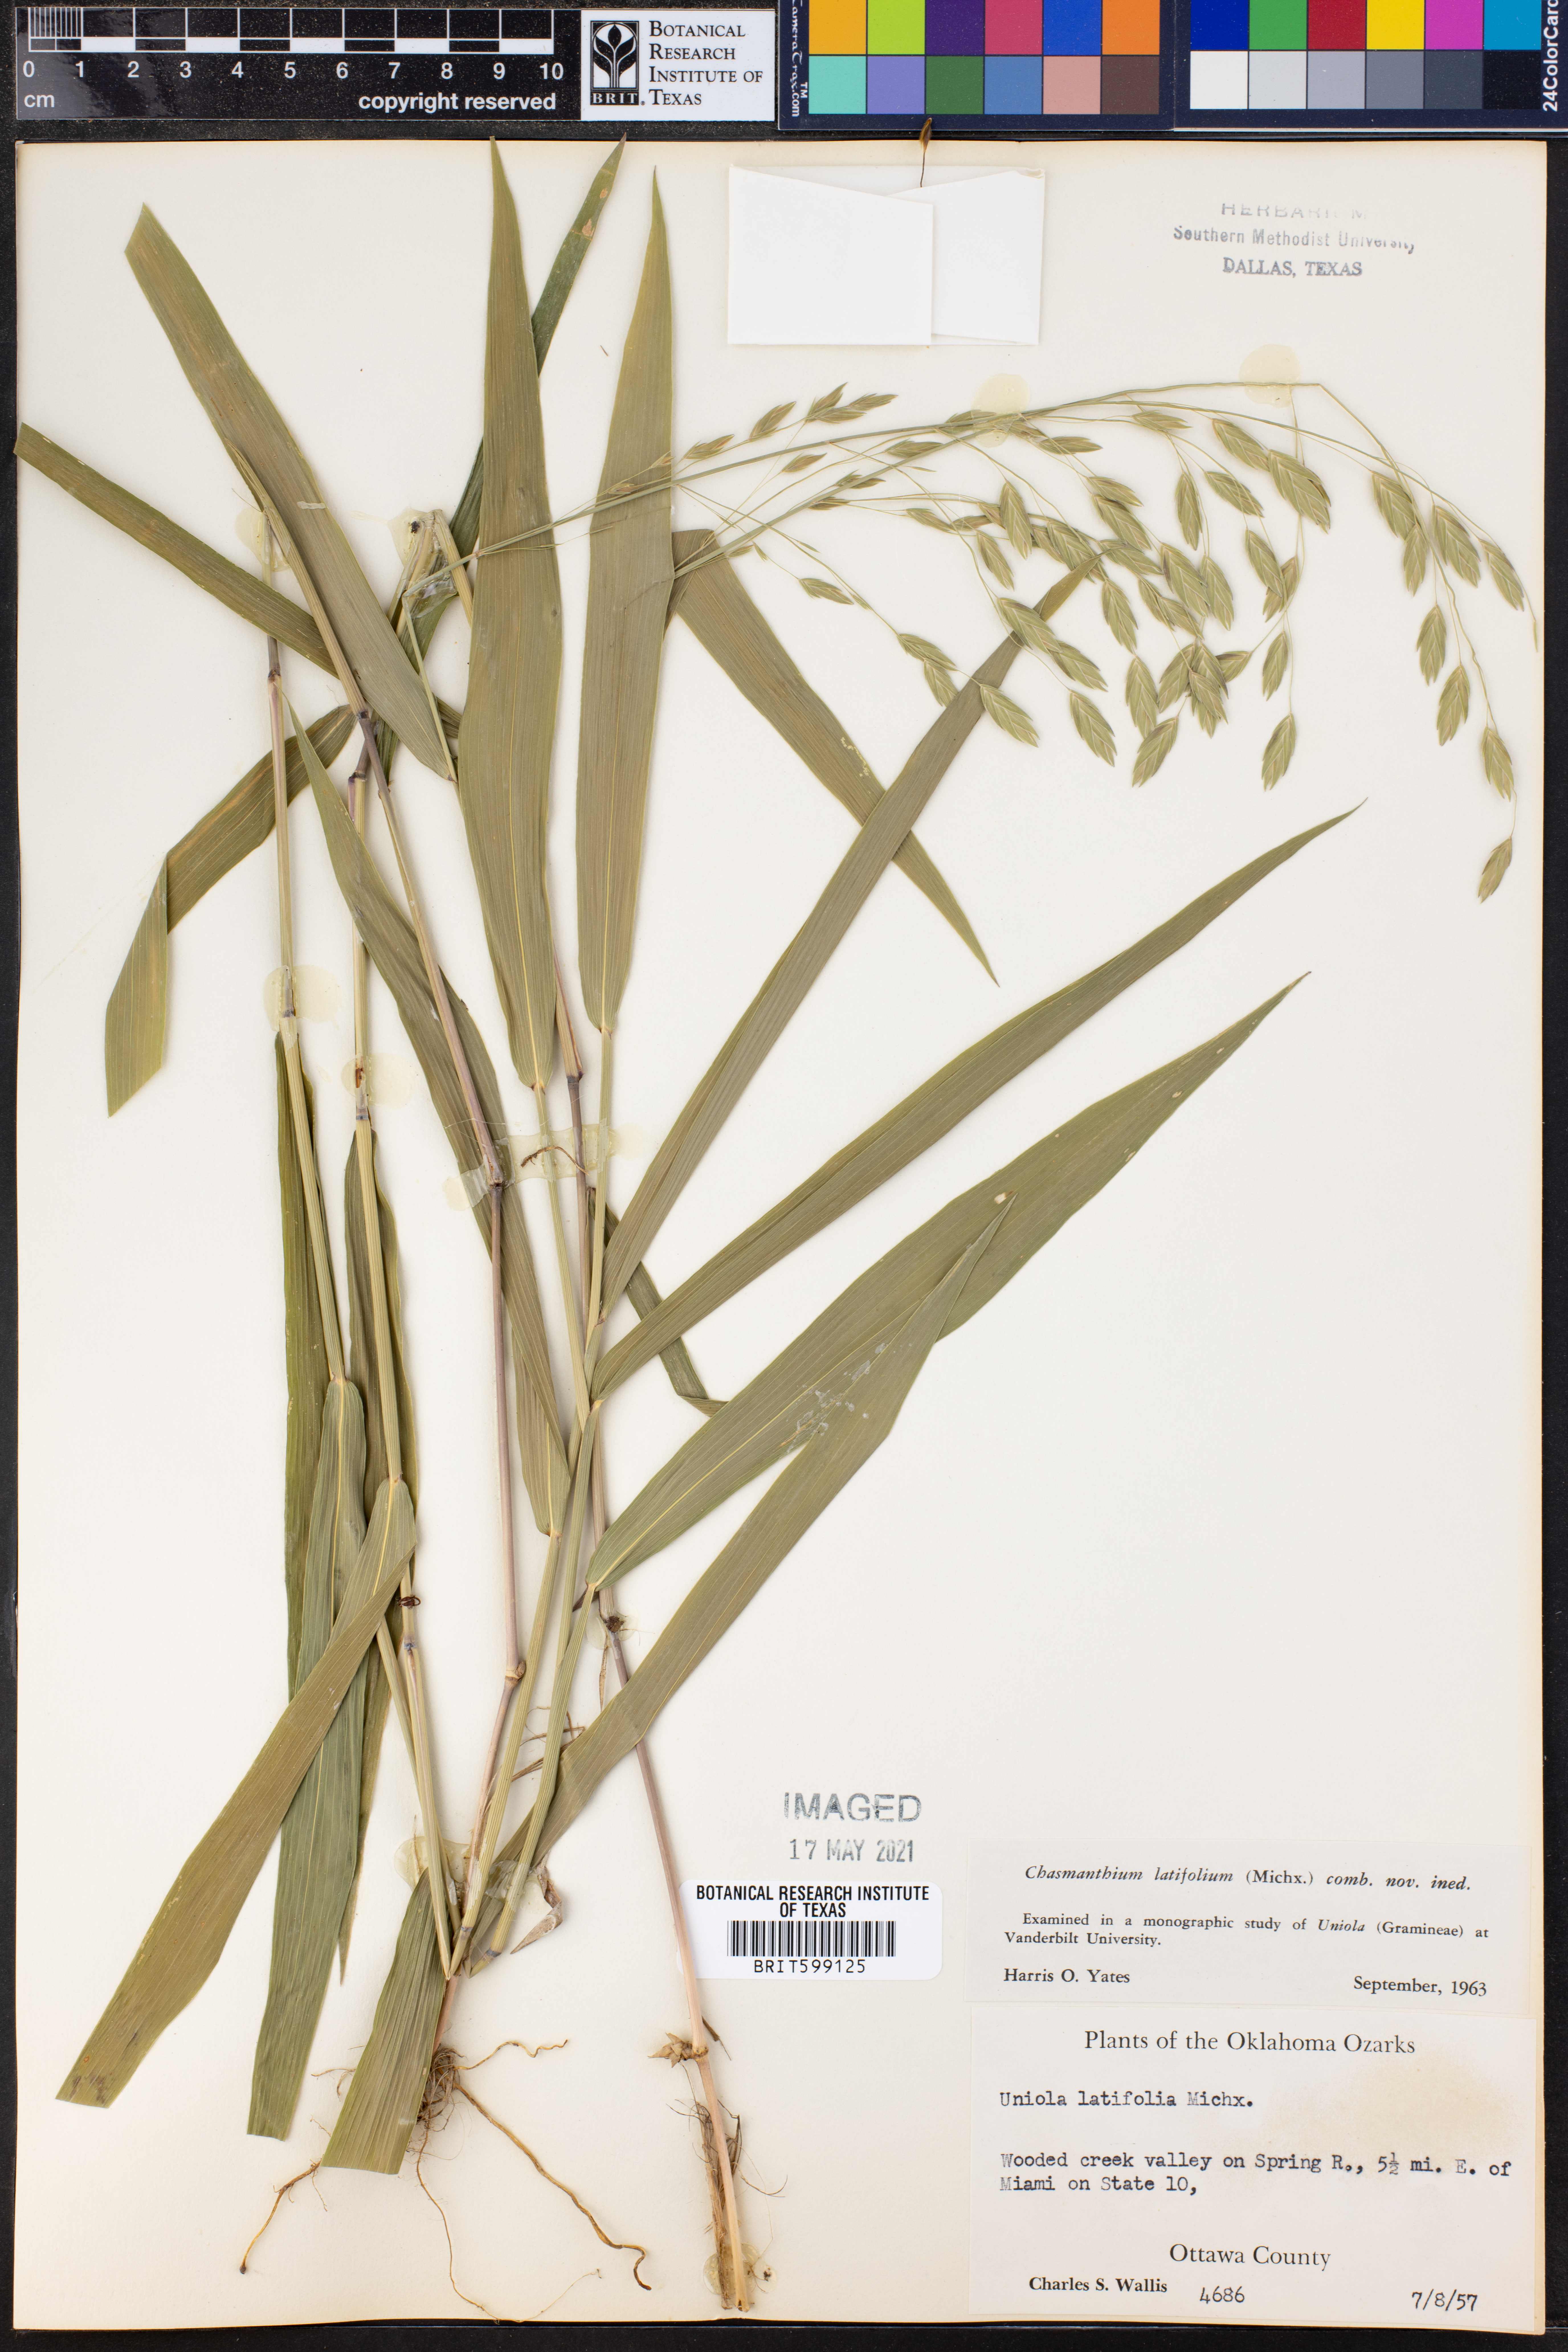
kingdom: Plantae
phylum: Tracheophyta
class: Liliopsida
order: Poales
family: Poaceae
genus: Chasmanthium
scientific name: Chasmanthium latifolium
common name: Broad-leaved chasmanthium
